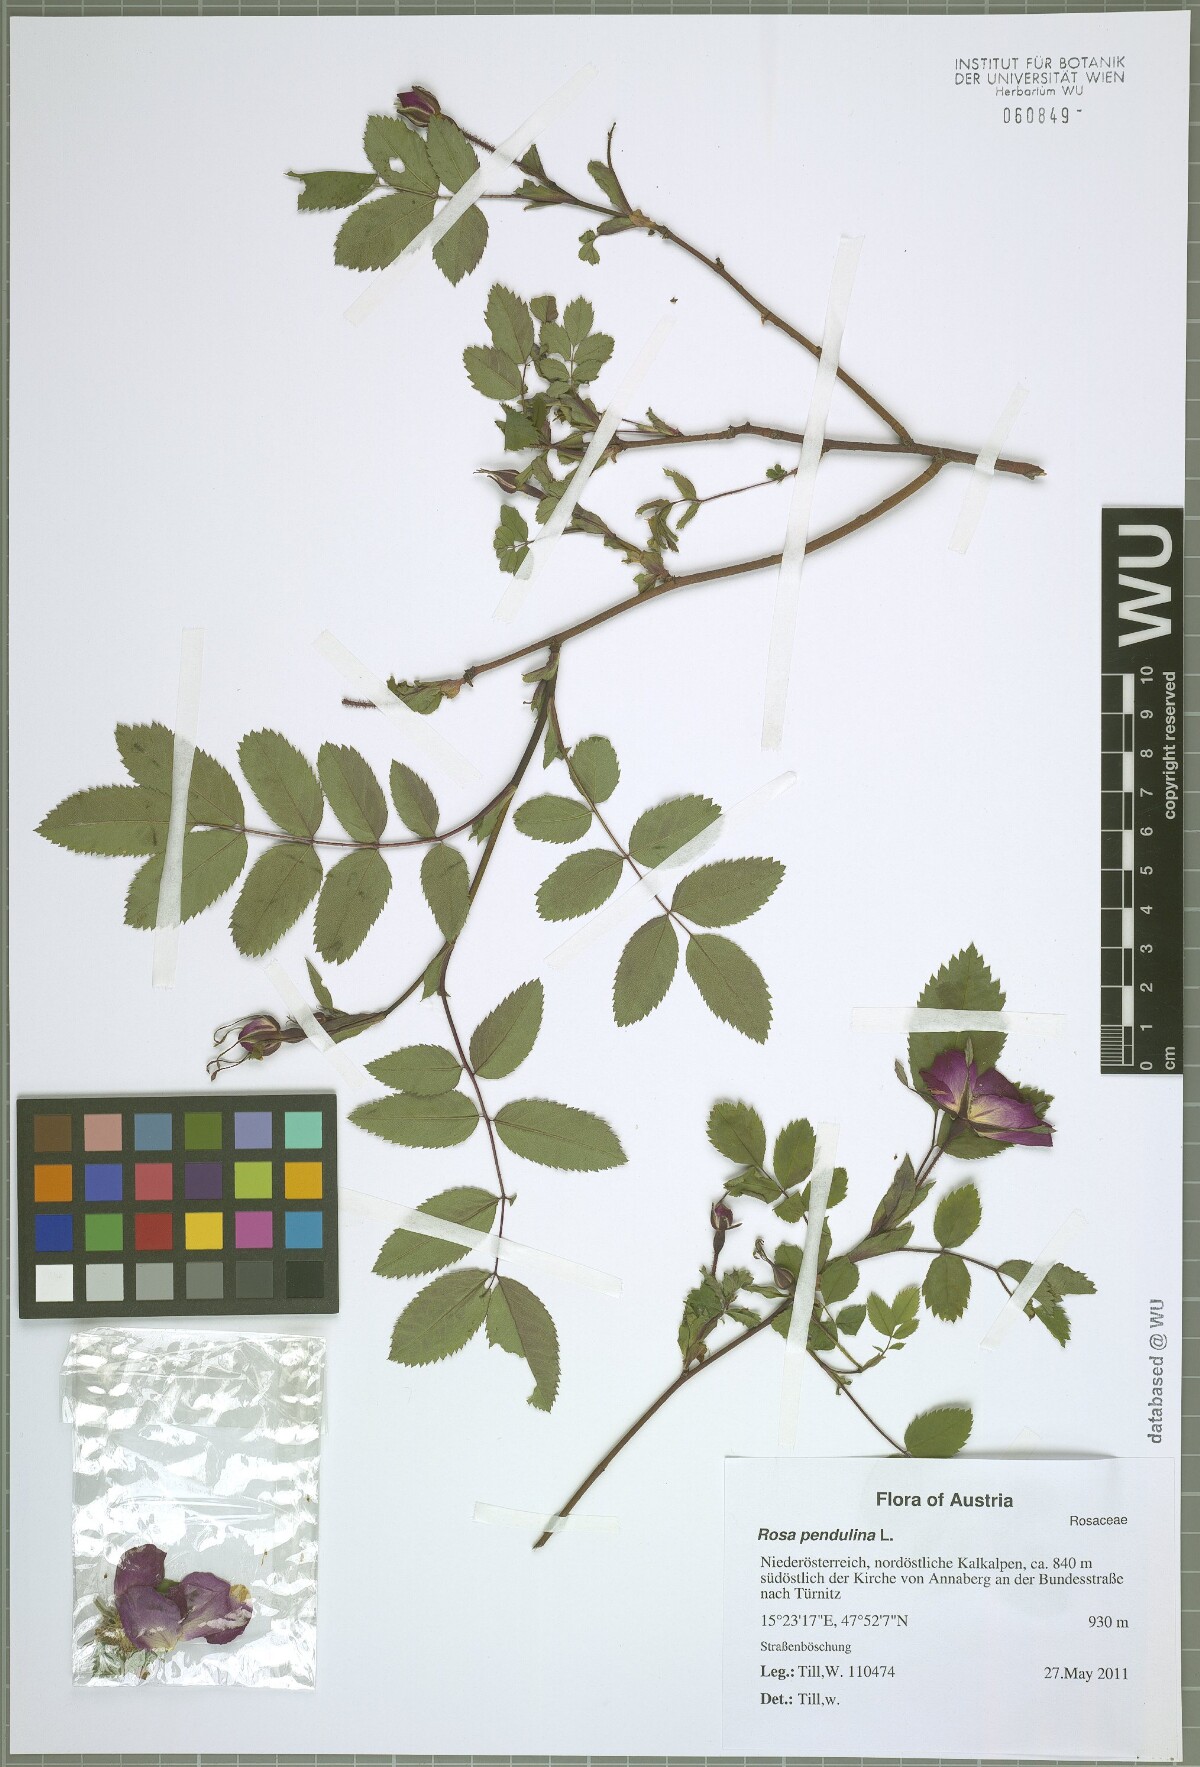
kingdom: Plantae
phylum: Tracheophyta
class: Magnoliopsida
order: Rosales
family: Rosaceae
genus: Rosa
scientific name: Rosa pendulina
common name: Alpine rose
